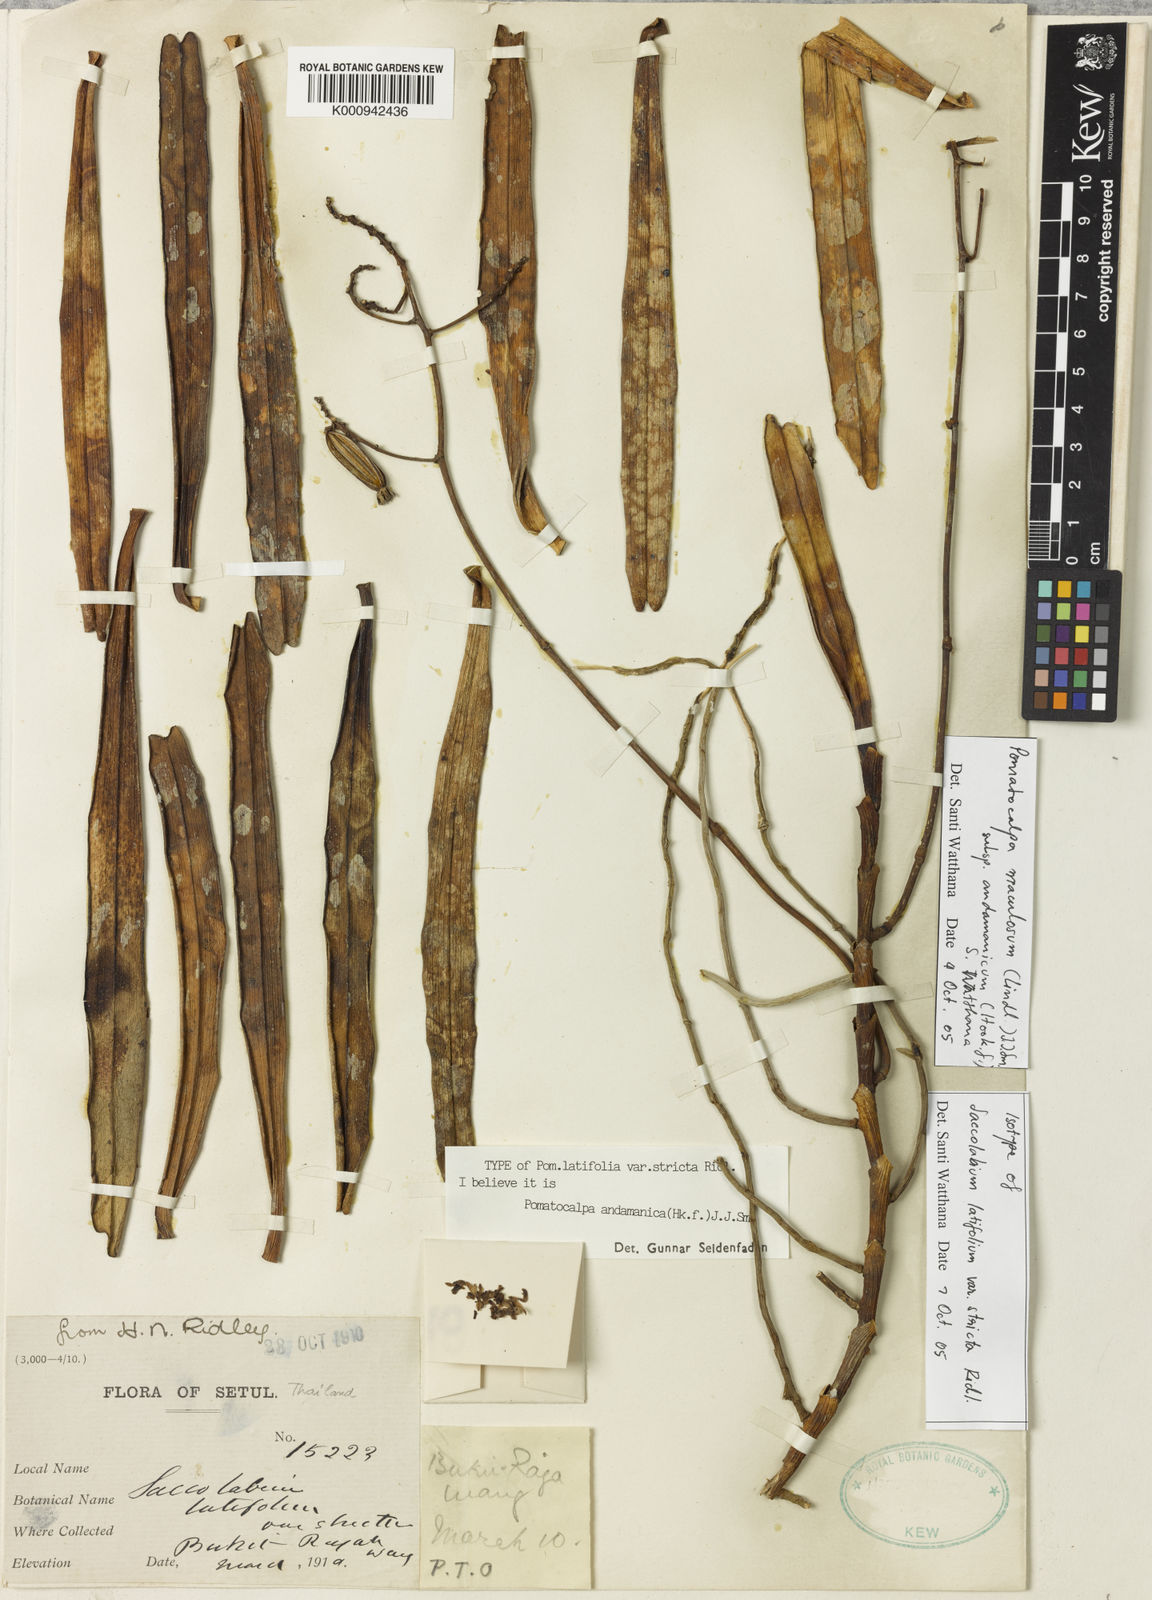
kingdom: Plantae
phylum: Tracheophyta
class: Liliopsida
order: Asparagales
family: Orchidaceae
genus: Pomatocalpa
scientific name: Pomatocalpa maculosum
